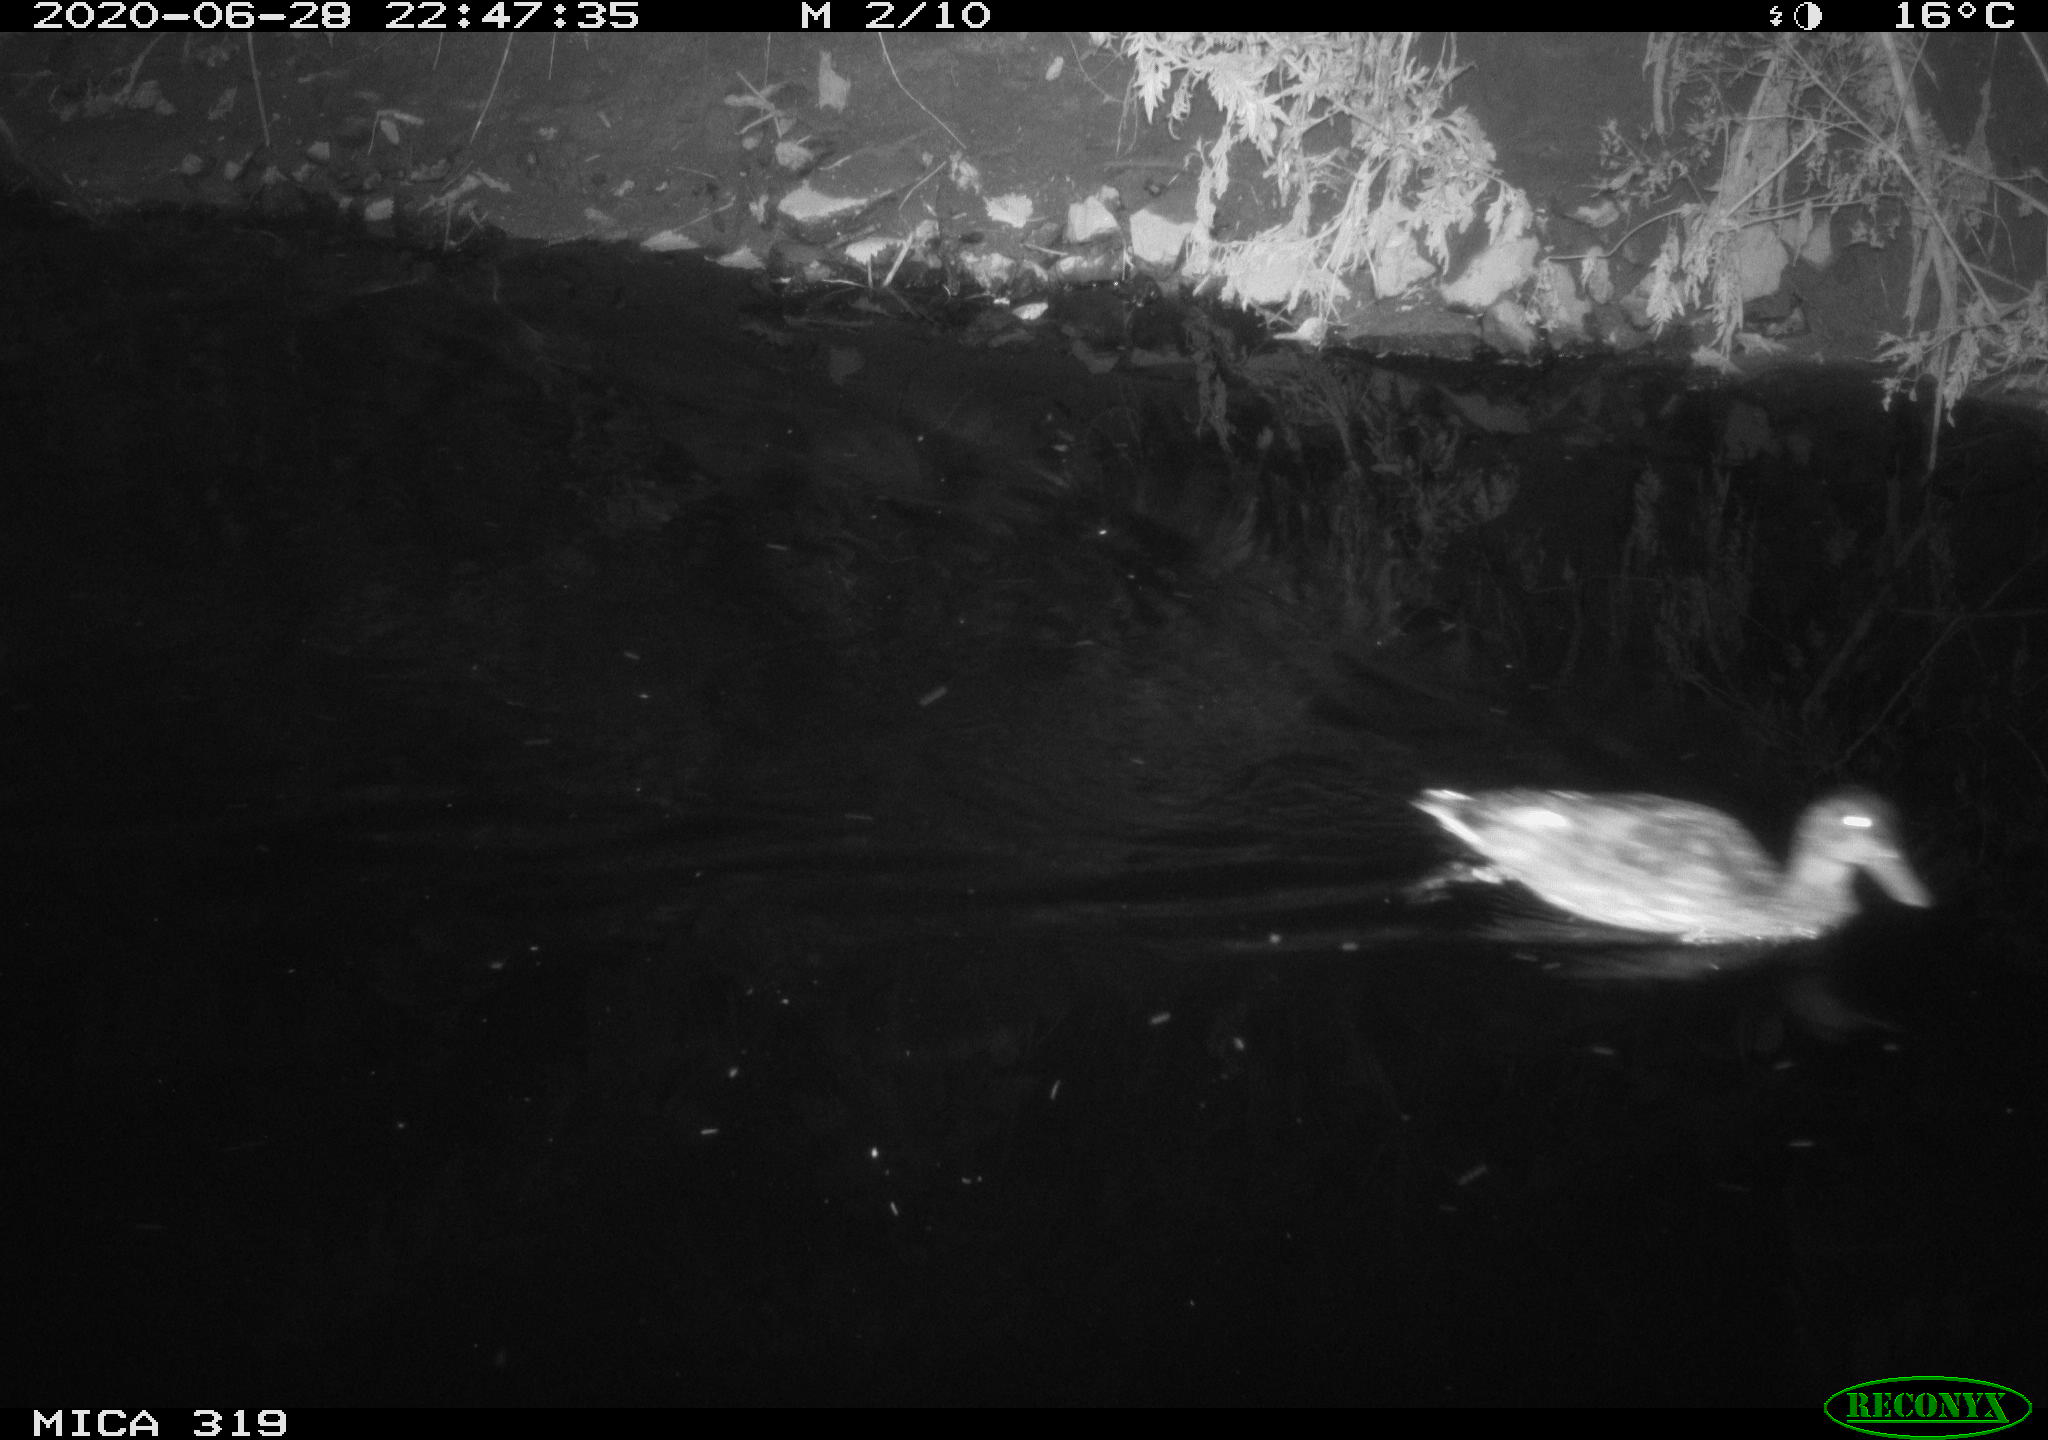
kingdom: Animalia
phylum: Chordata
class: Aves
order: Anseriformes
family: Anatidae
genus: Anas
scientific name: Anas platyrhynchos
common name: Mallard
